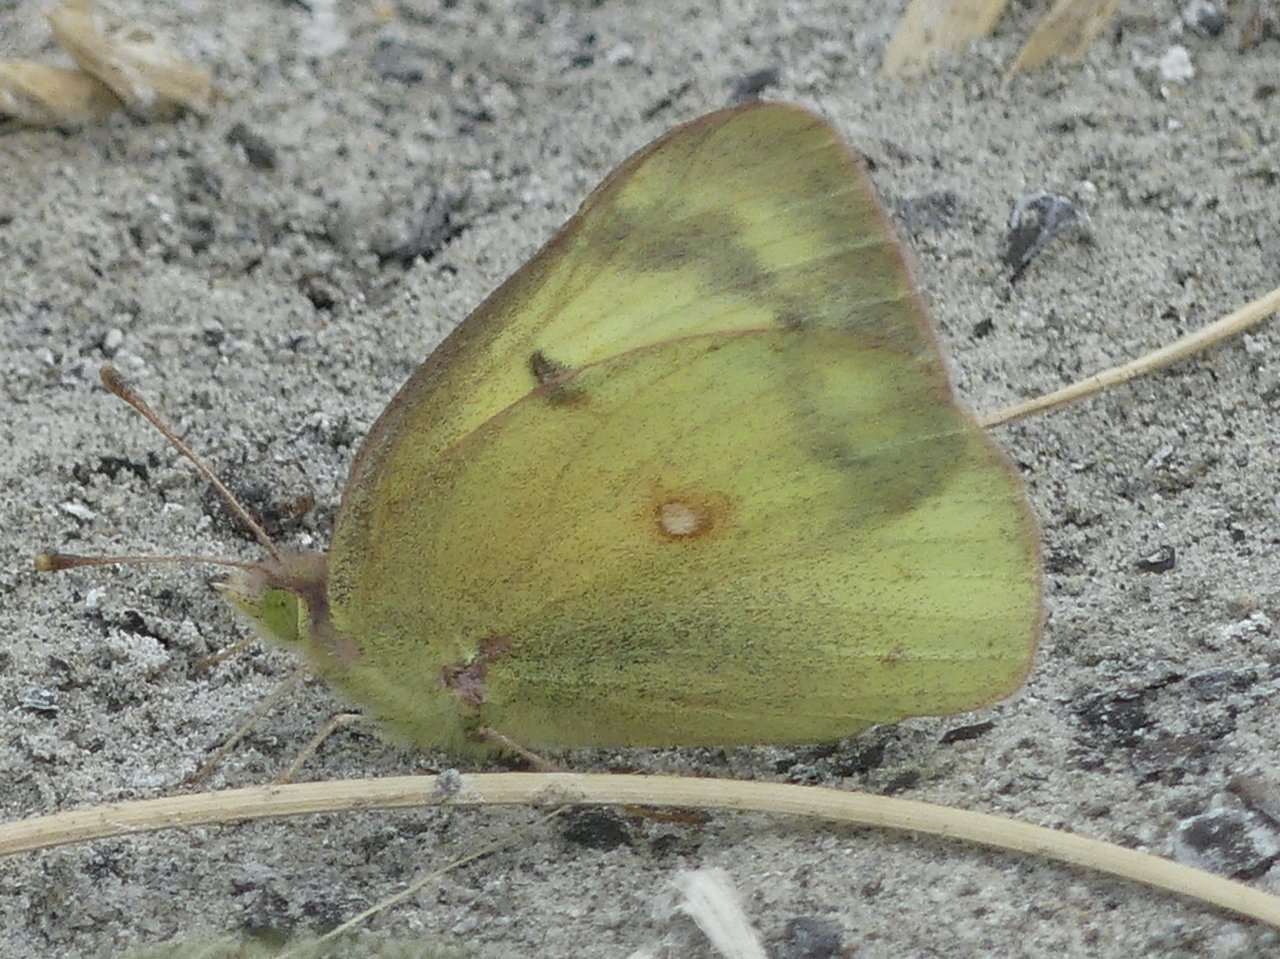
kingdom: Animalia
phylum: Arthropoda
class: Insecta
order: Lepidoptera
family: Pieridae
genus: Colias
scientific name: Colias
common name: Clouded Yellows
